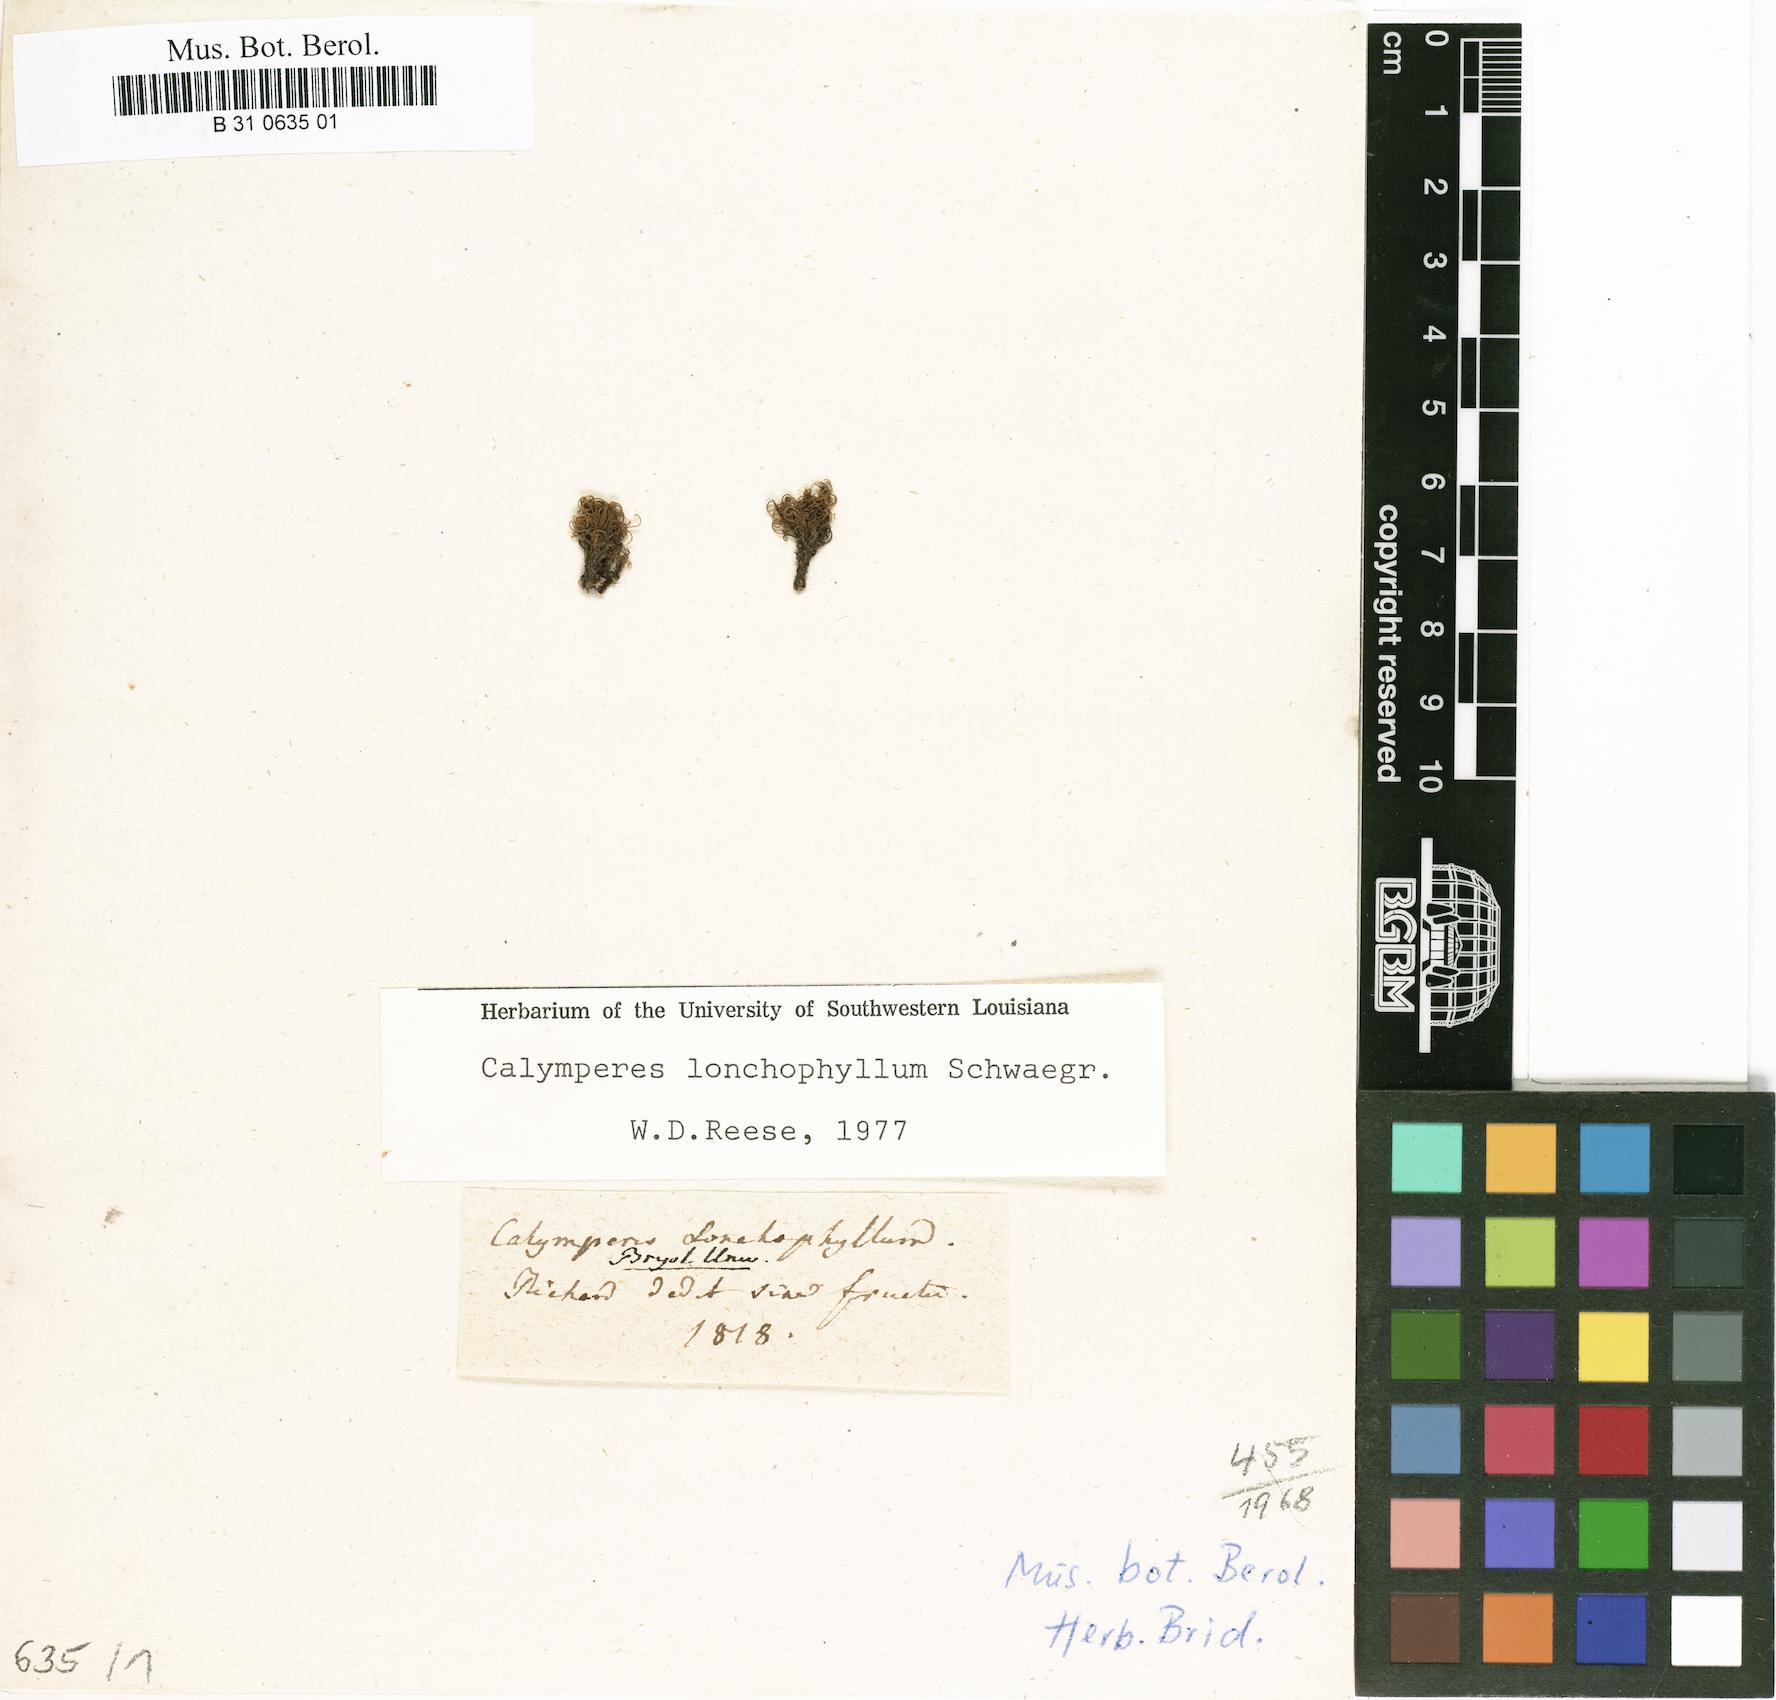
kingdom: Plantae
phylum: Bryophyta
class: Bryopsida
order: Dicranales
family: Calymperaceae
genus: Calymperes
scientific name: Calymperes lonchophyllum
